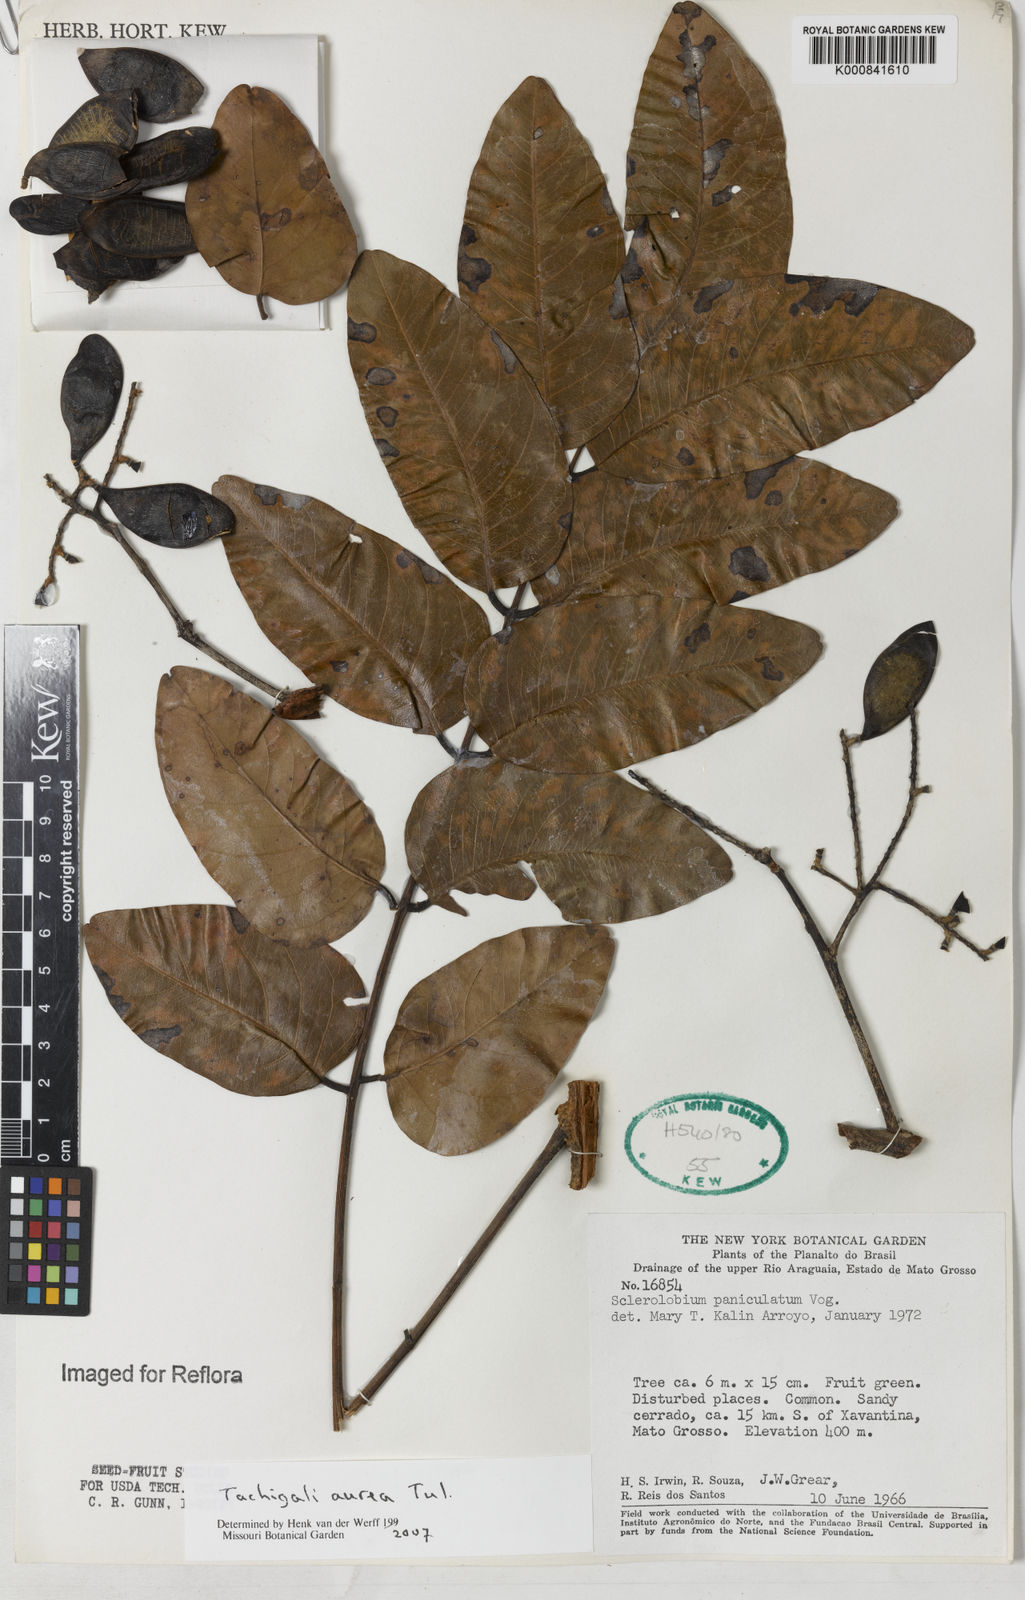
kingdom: Plantae
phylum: Tracheophyta
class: Magnoliopsida
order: Fabales
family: Fabaceae
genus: Tachigali
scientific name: Tachigali aurea
